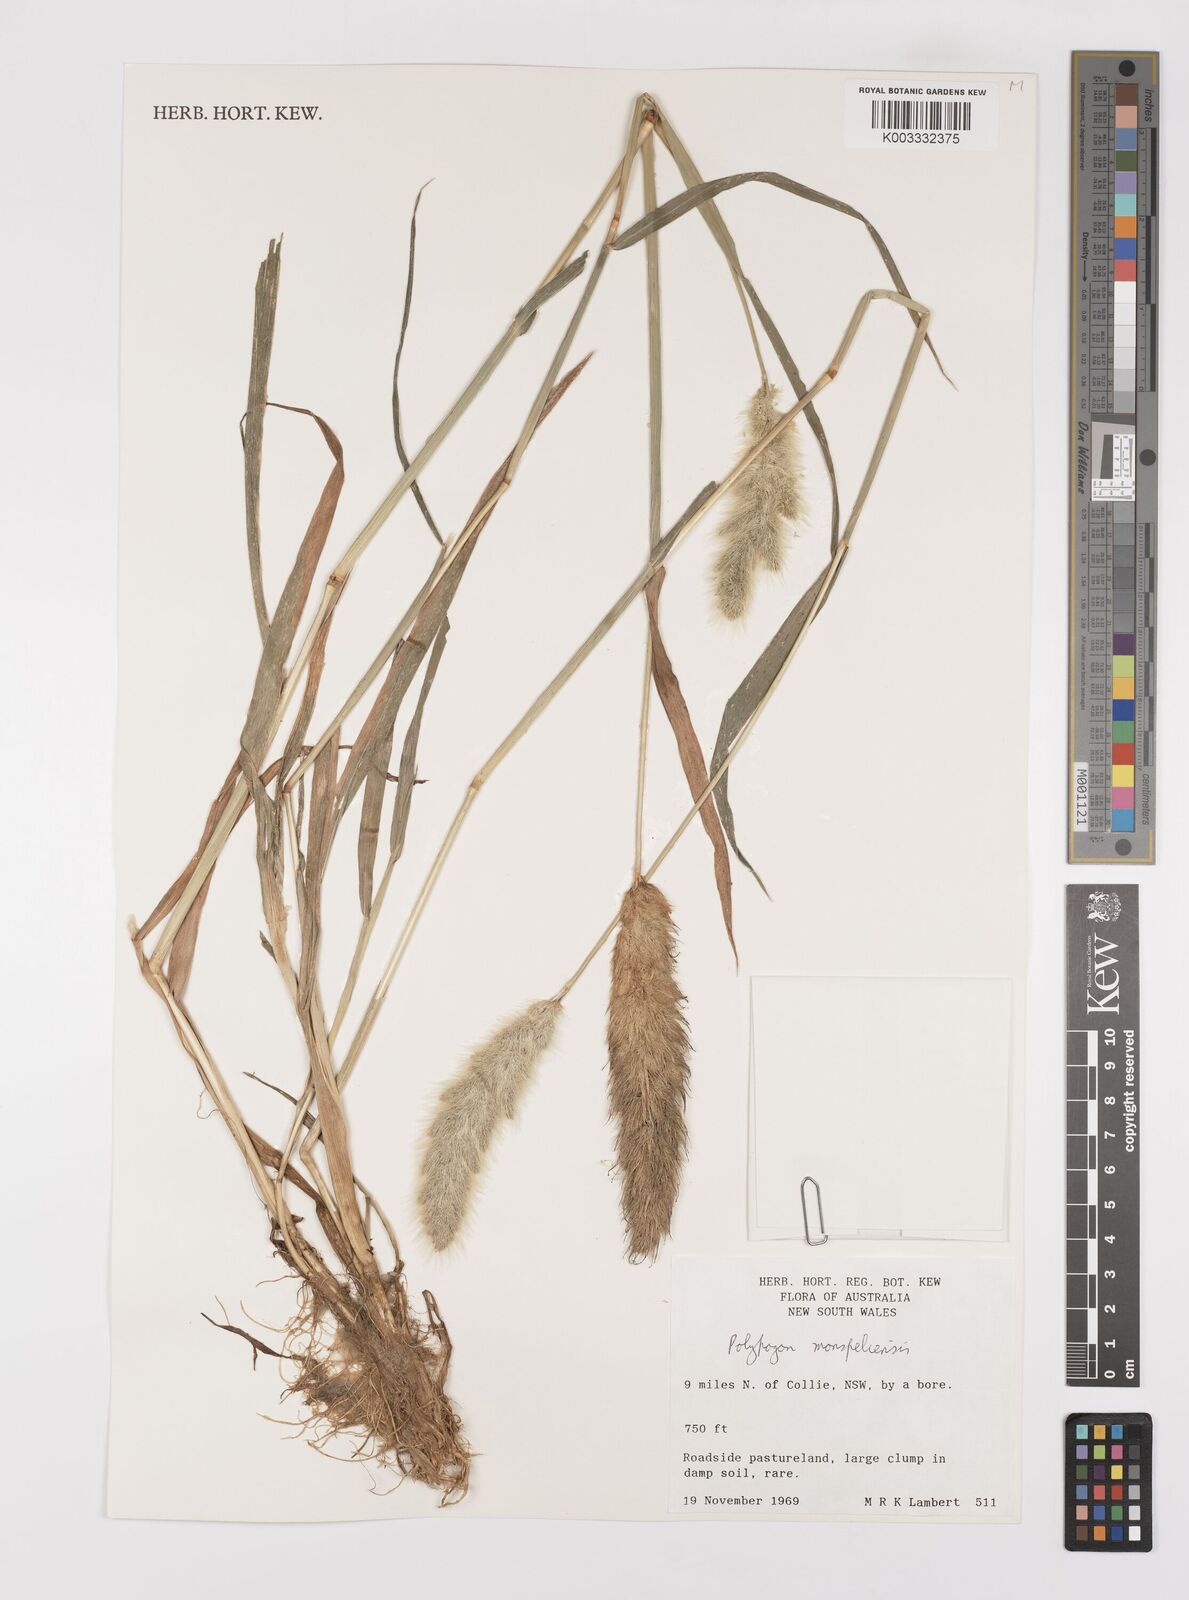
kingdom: Plantae
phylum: Tracheophyta
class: Liliopsida
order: Poales
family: Poaceae
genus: Polypogon
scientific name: Polypogon monspeliensis
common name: Annual rabbitsfoot grass
